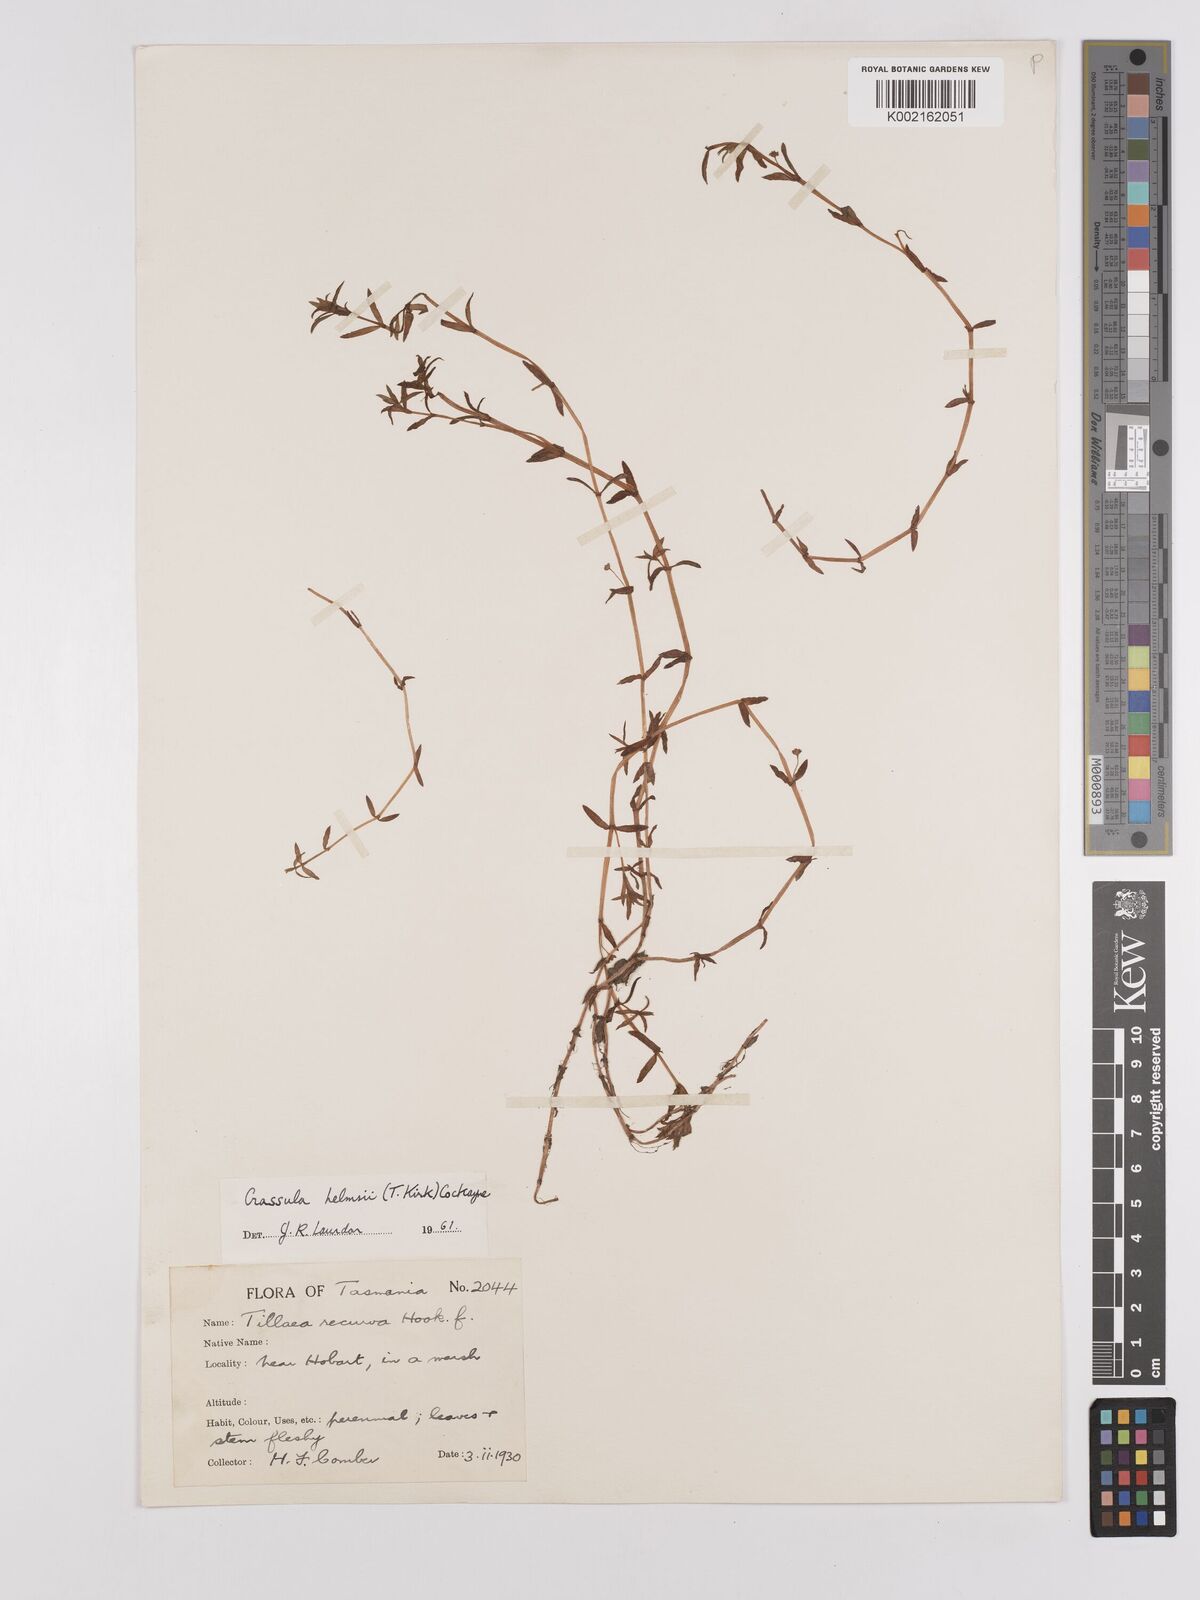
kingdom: Plantae
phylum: Tracheophyta
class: Magnoliopsida
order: Saxifragales
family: Crassulaceae
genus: Crassula
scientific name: Crassula helmsii
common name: New zealand pigmyweed
